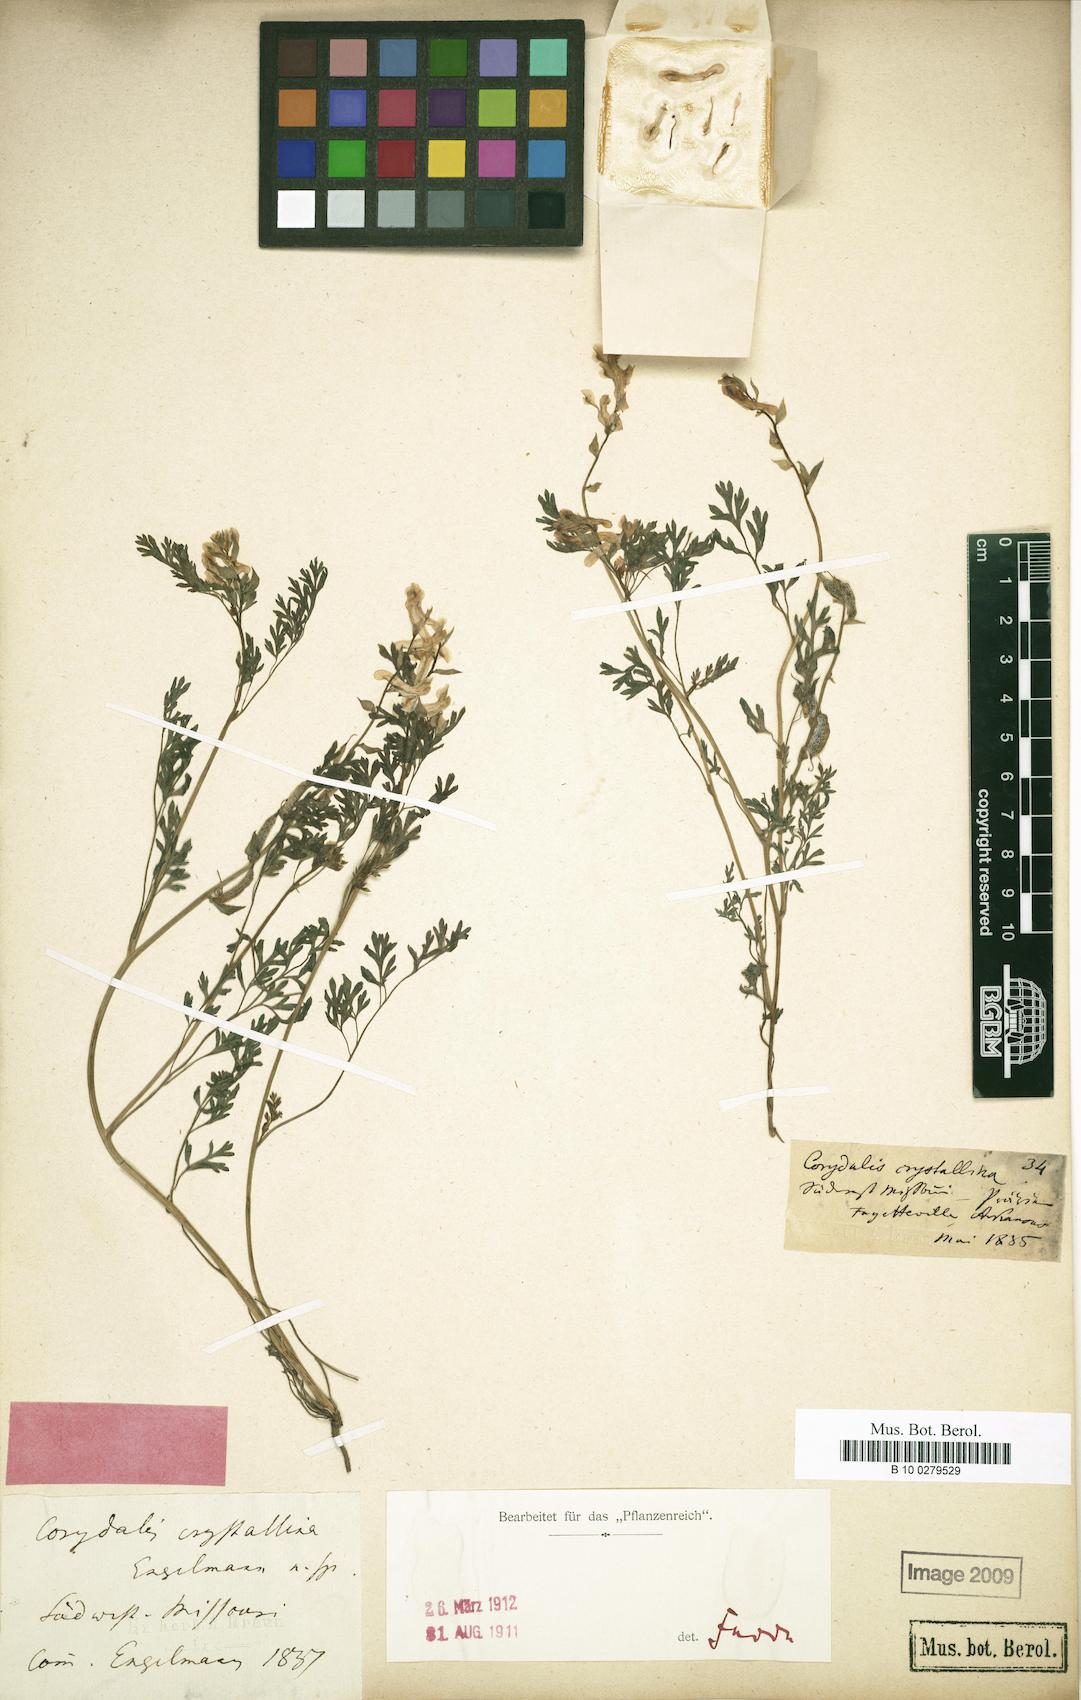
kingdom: Plantae
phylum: Tracheophyta
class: Magnoliopsida
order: Ranunculales
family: Papaveraceae
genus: Corydalis
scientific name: Corydalis crystallina
